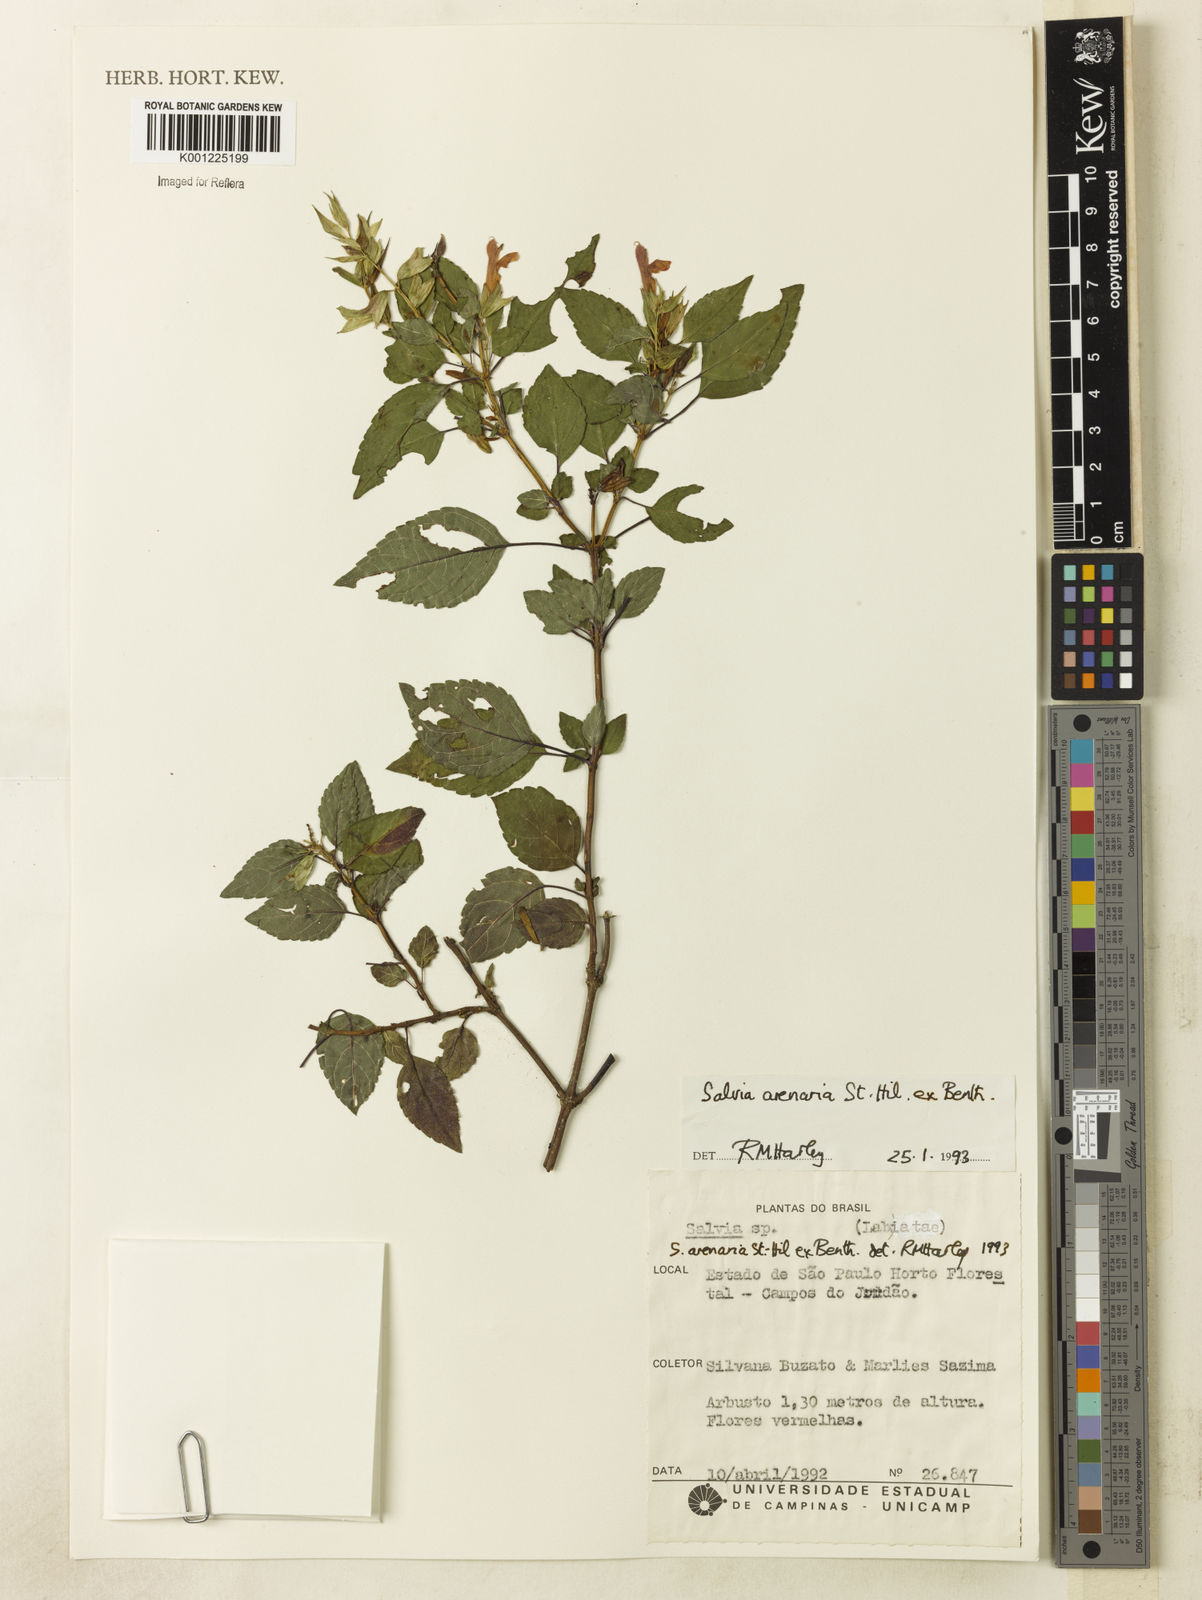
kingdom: Plantae
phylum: Tracheophyta
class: Magnoliopsida
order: Lamiales
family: Lamiaceae
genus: Salvia
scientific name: Salvia arenaria
